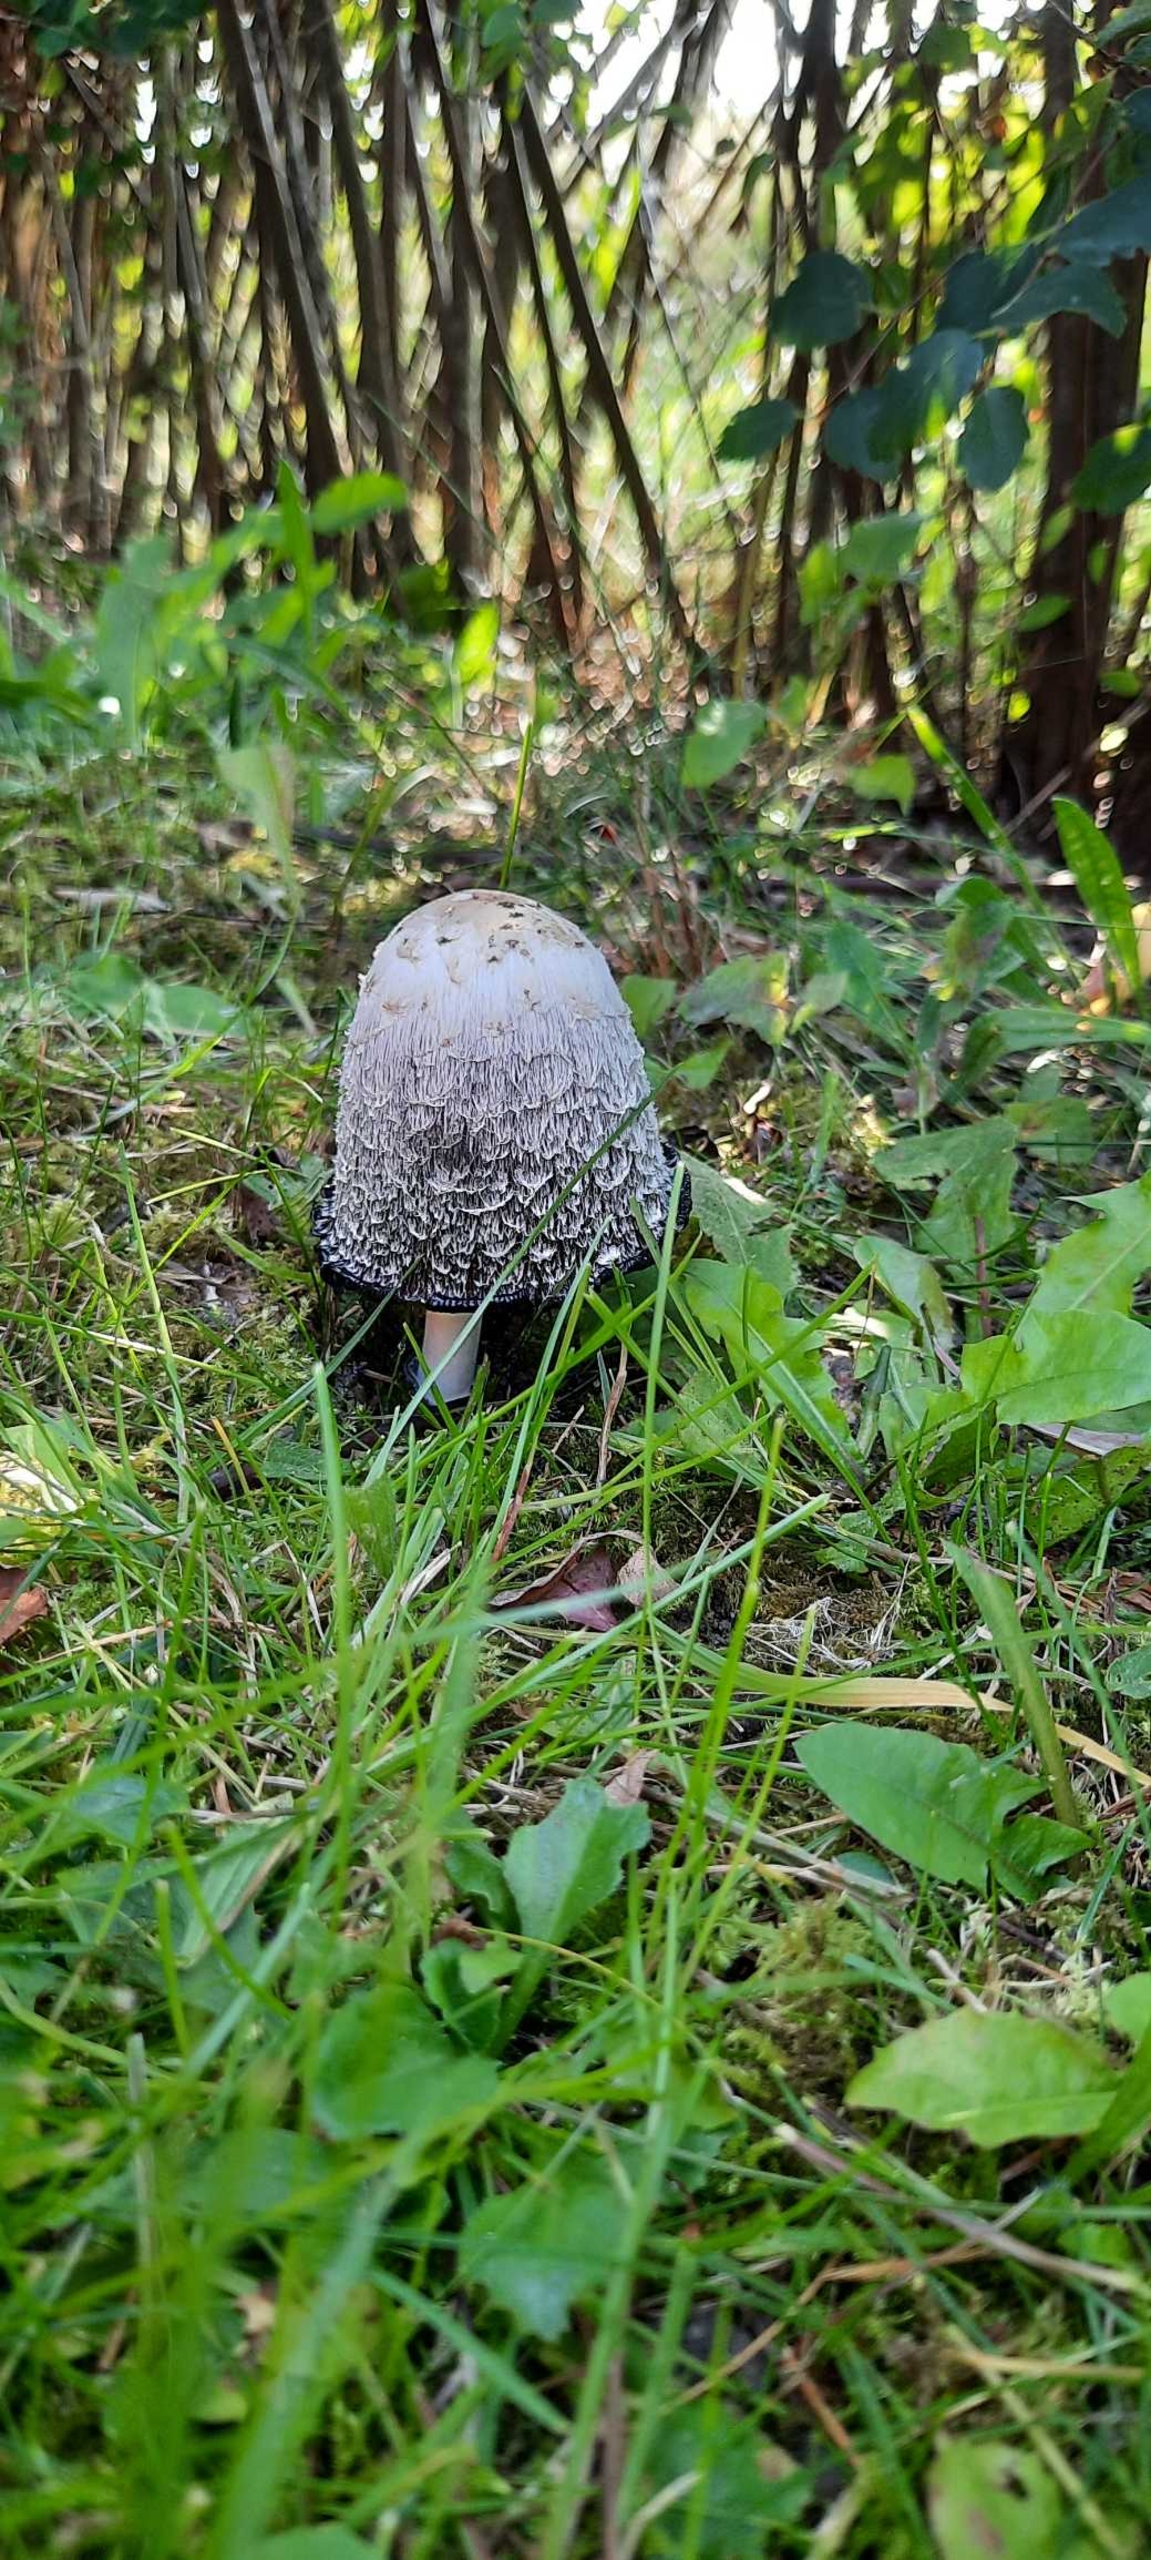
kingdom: Fungi
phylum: Basidiomycota
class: Agaricomycetes
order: Agaricales
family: Agaricaceae
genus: Coprinus
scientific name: Coprinus comatus
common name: Stor parykhat
